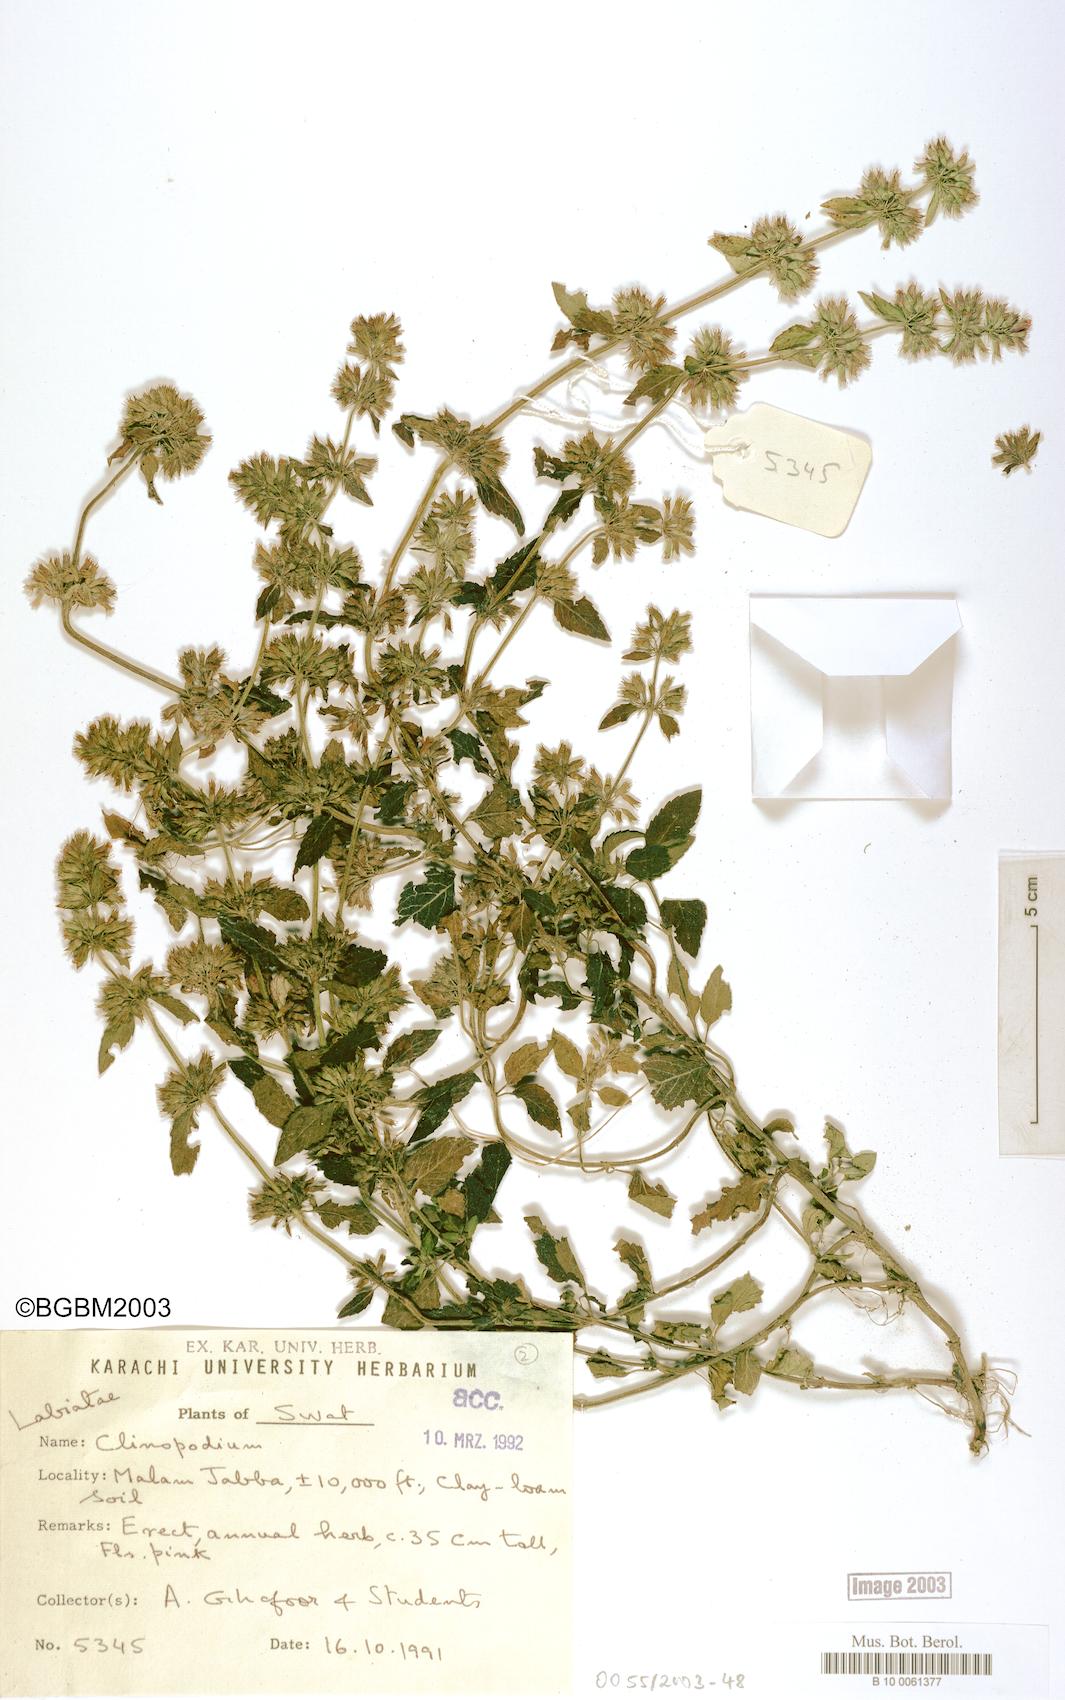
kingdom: Plantae
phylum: Tracheophyta
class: Magnoliopsida
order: Lamiales
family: Lamiaceae
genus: Clinopodium
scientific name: Clinopodium
